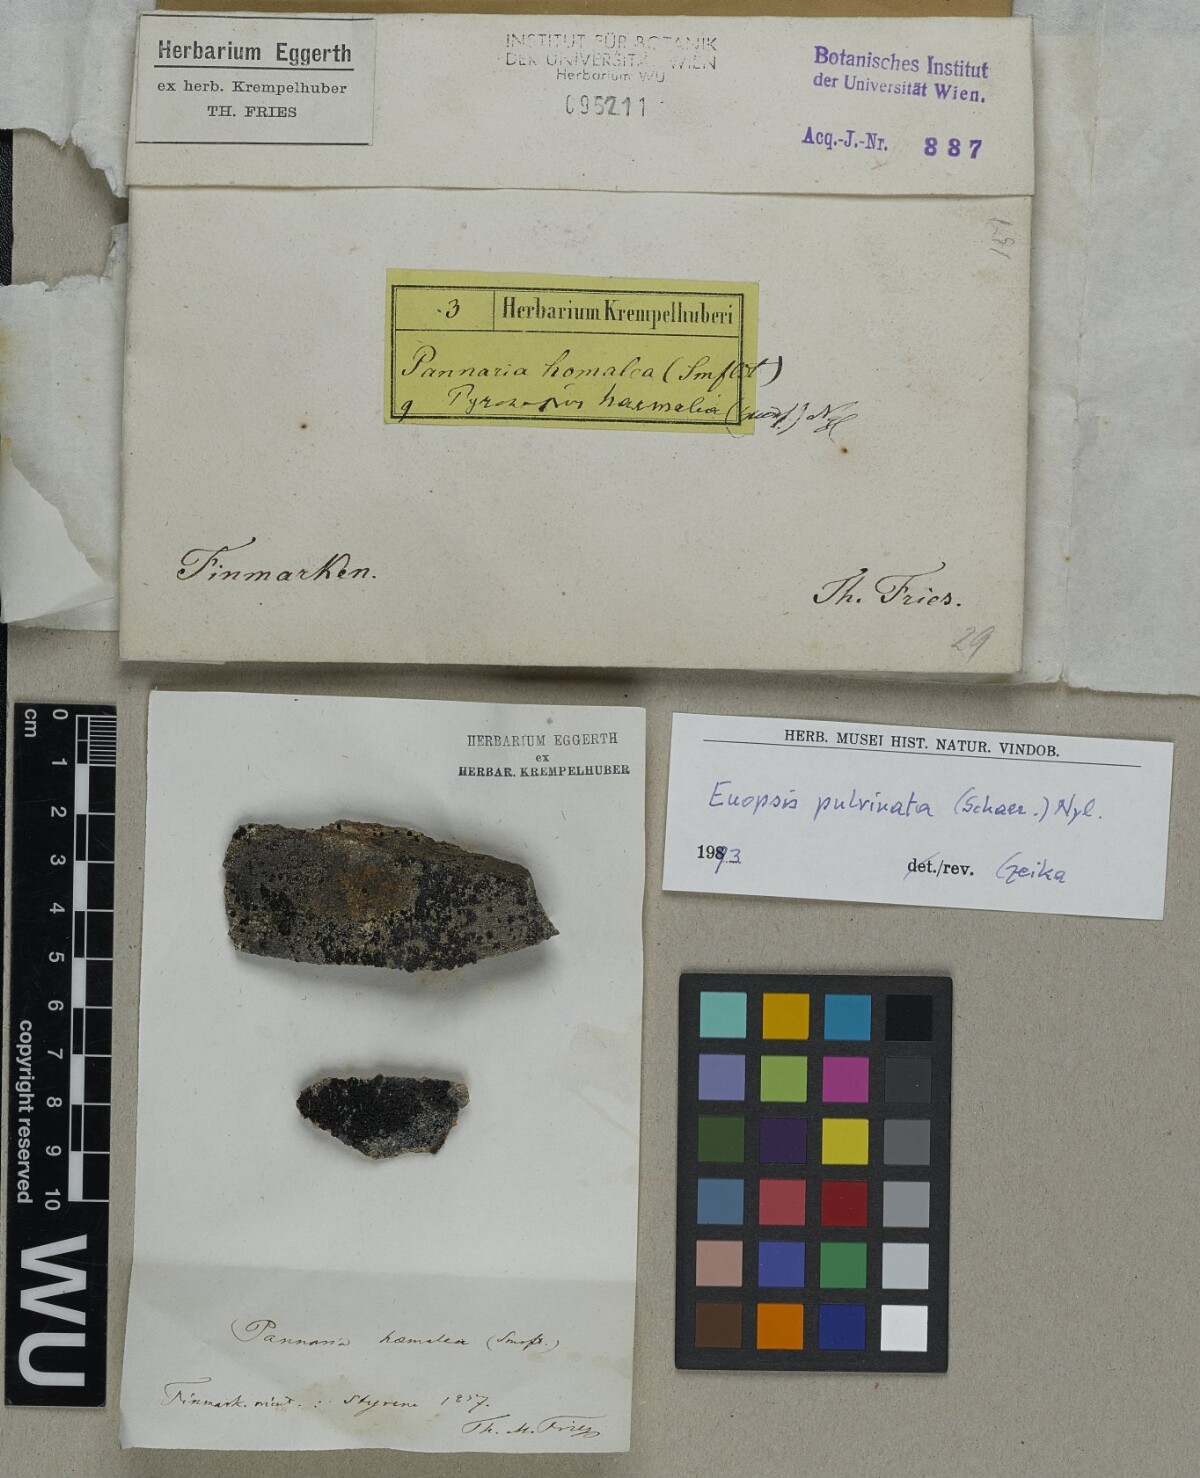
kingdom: Fungi
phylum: Ascomycota
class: Lichinomycetes
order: Lichinales
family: Lichinaceae
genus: Euopsis
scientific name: Euopsis pulvinata
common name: Greater rockbud lichen
